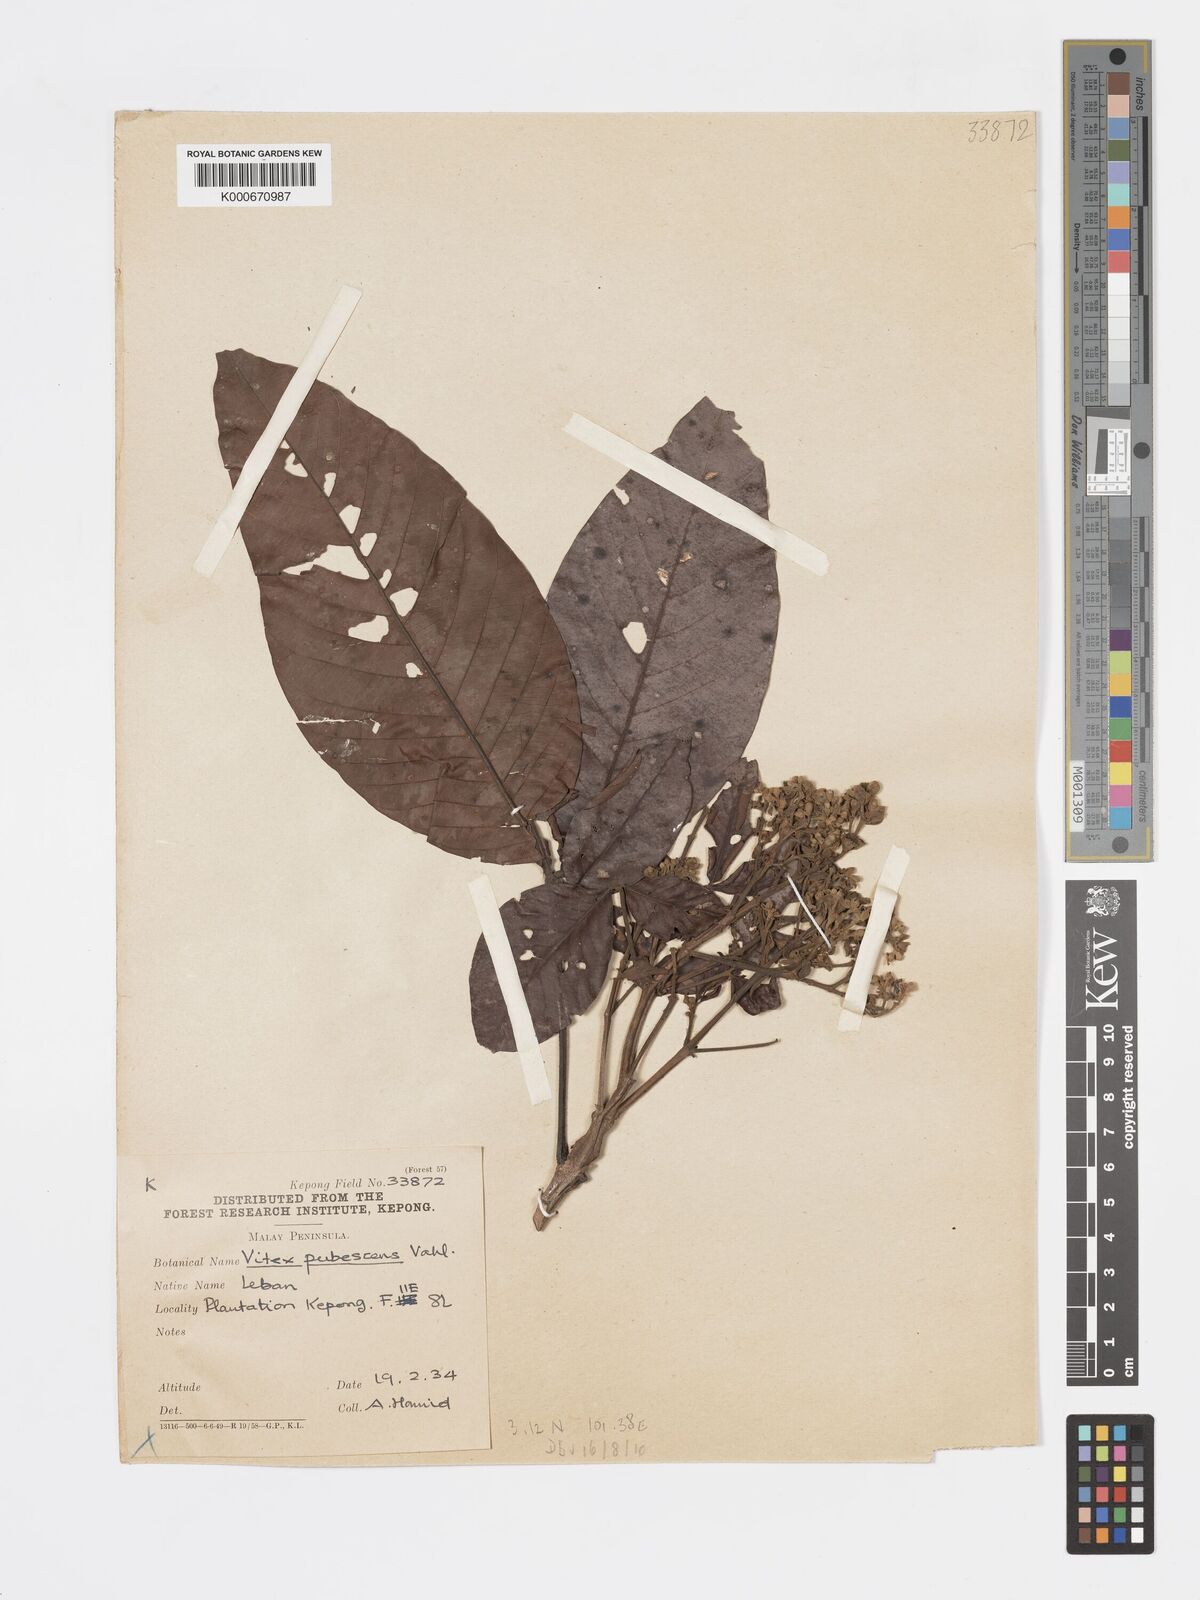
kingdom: Plantae
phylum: Tracheophyta
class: Magnoliopsida
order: Lamiales
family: Lamiaceae
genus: Vitex
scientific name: Vitex pinnata
